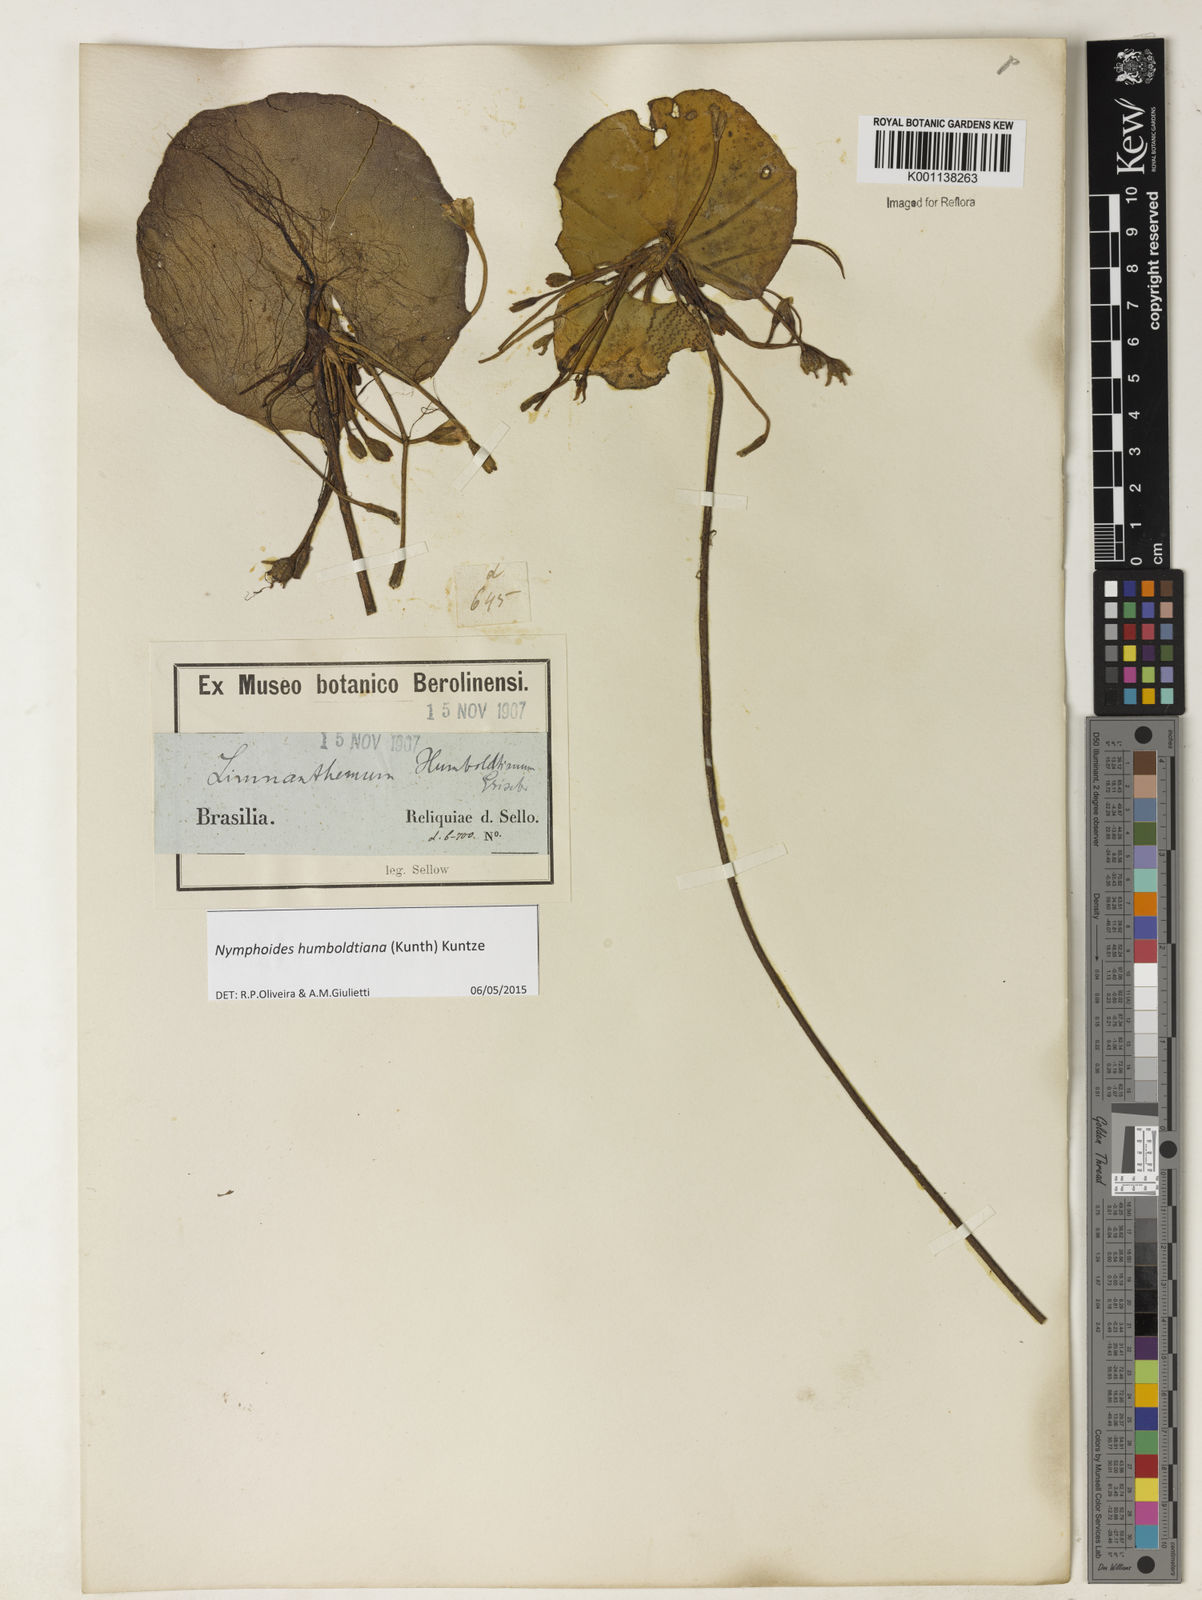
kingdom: Plantae
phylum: Tracheophyta
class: Magnoliopsida
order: Asterales
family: Menyanthaceae
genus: Nymphoides
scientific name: Nymphoides humboldtiana
